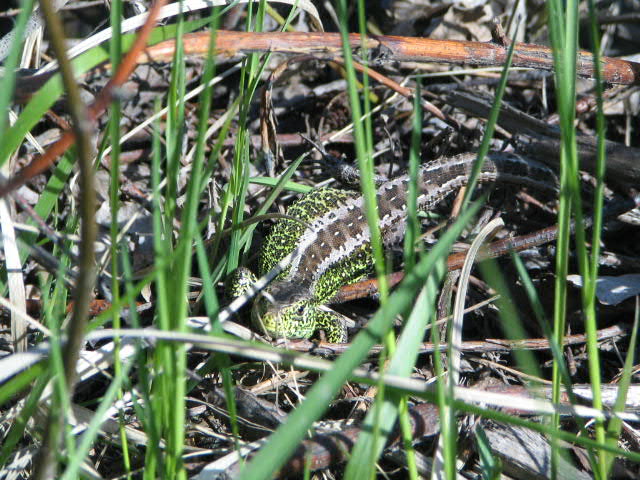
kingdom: Animalia
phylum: Chordata
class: Squamata
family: Lacertidae
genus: Lacerta
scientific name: Lacerta agilis
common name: Sand lizard
